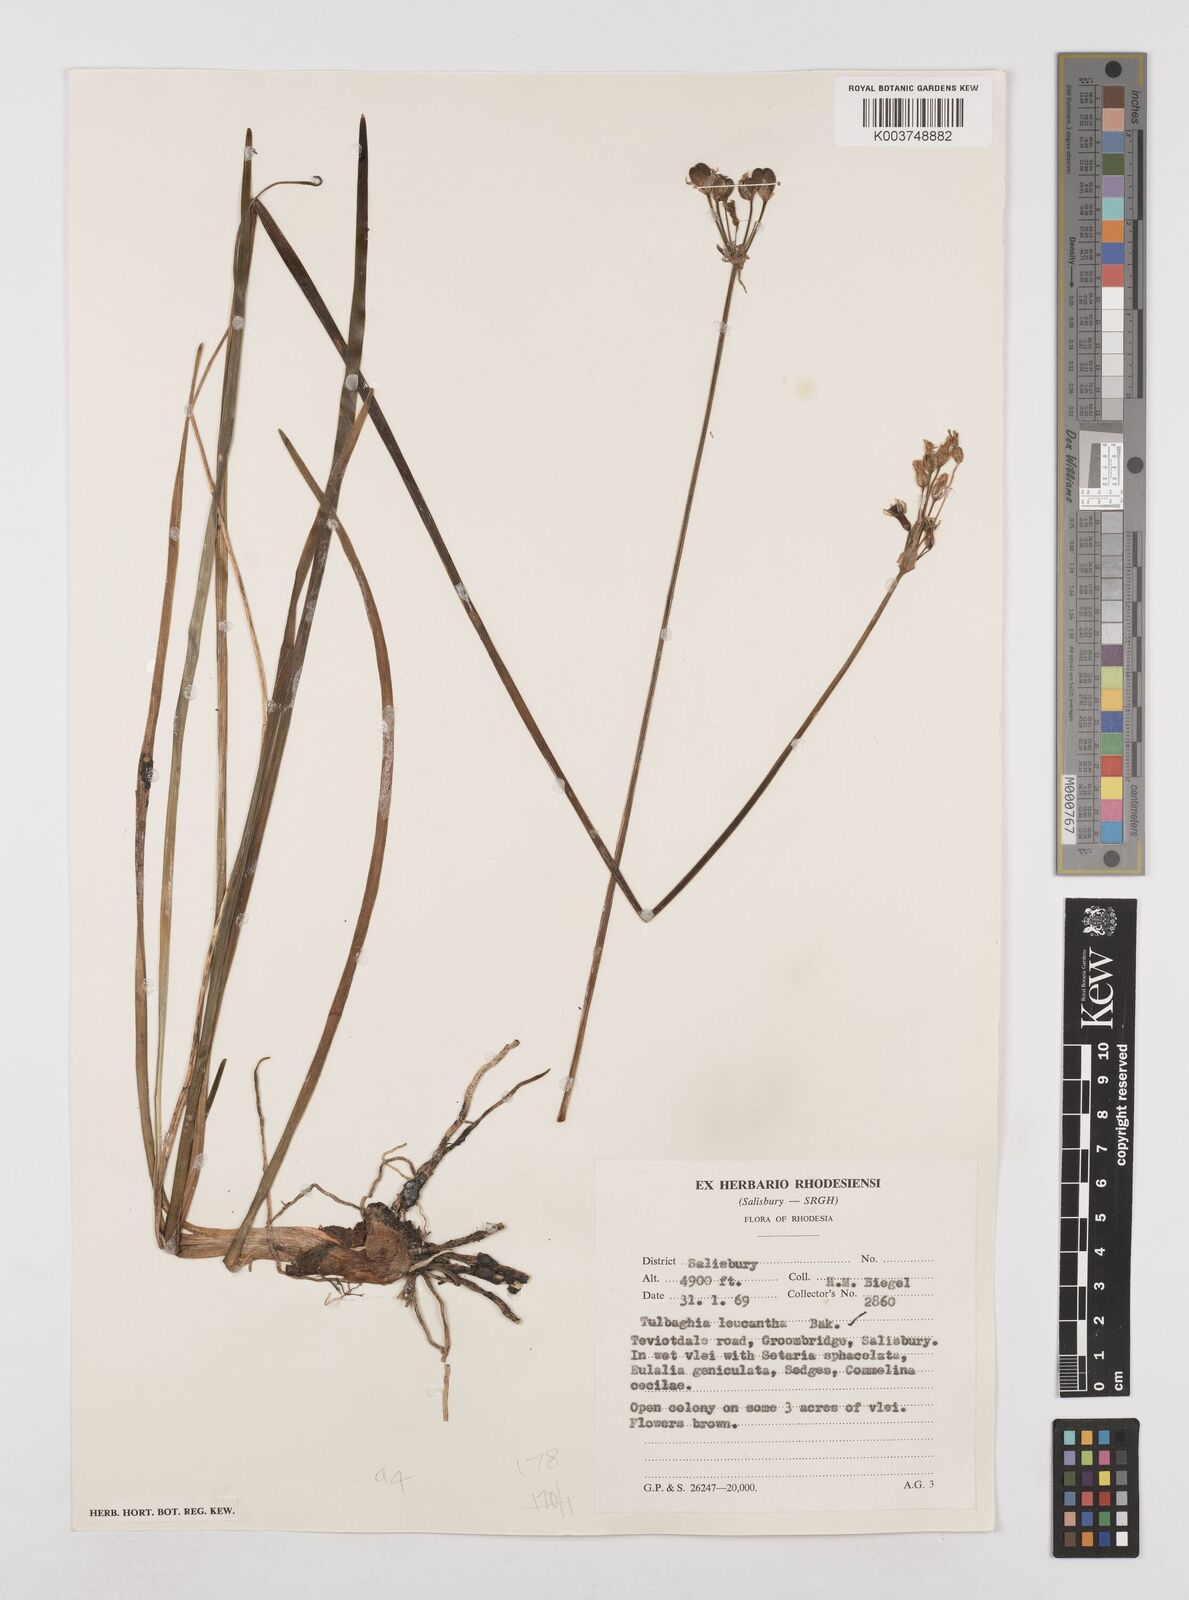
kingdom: Plantae
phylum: Tracheophyta
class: Liliopsida
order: Asparagales
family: Amaryllidaceae
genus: Tulbaghia
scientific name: Tulbaghia leucantha
